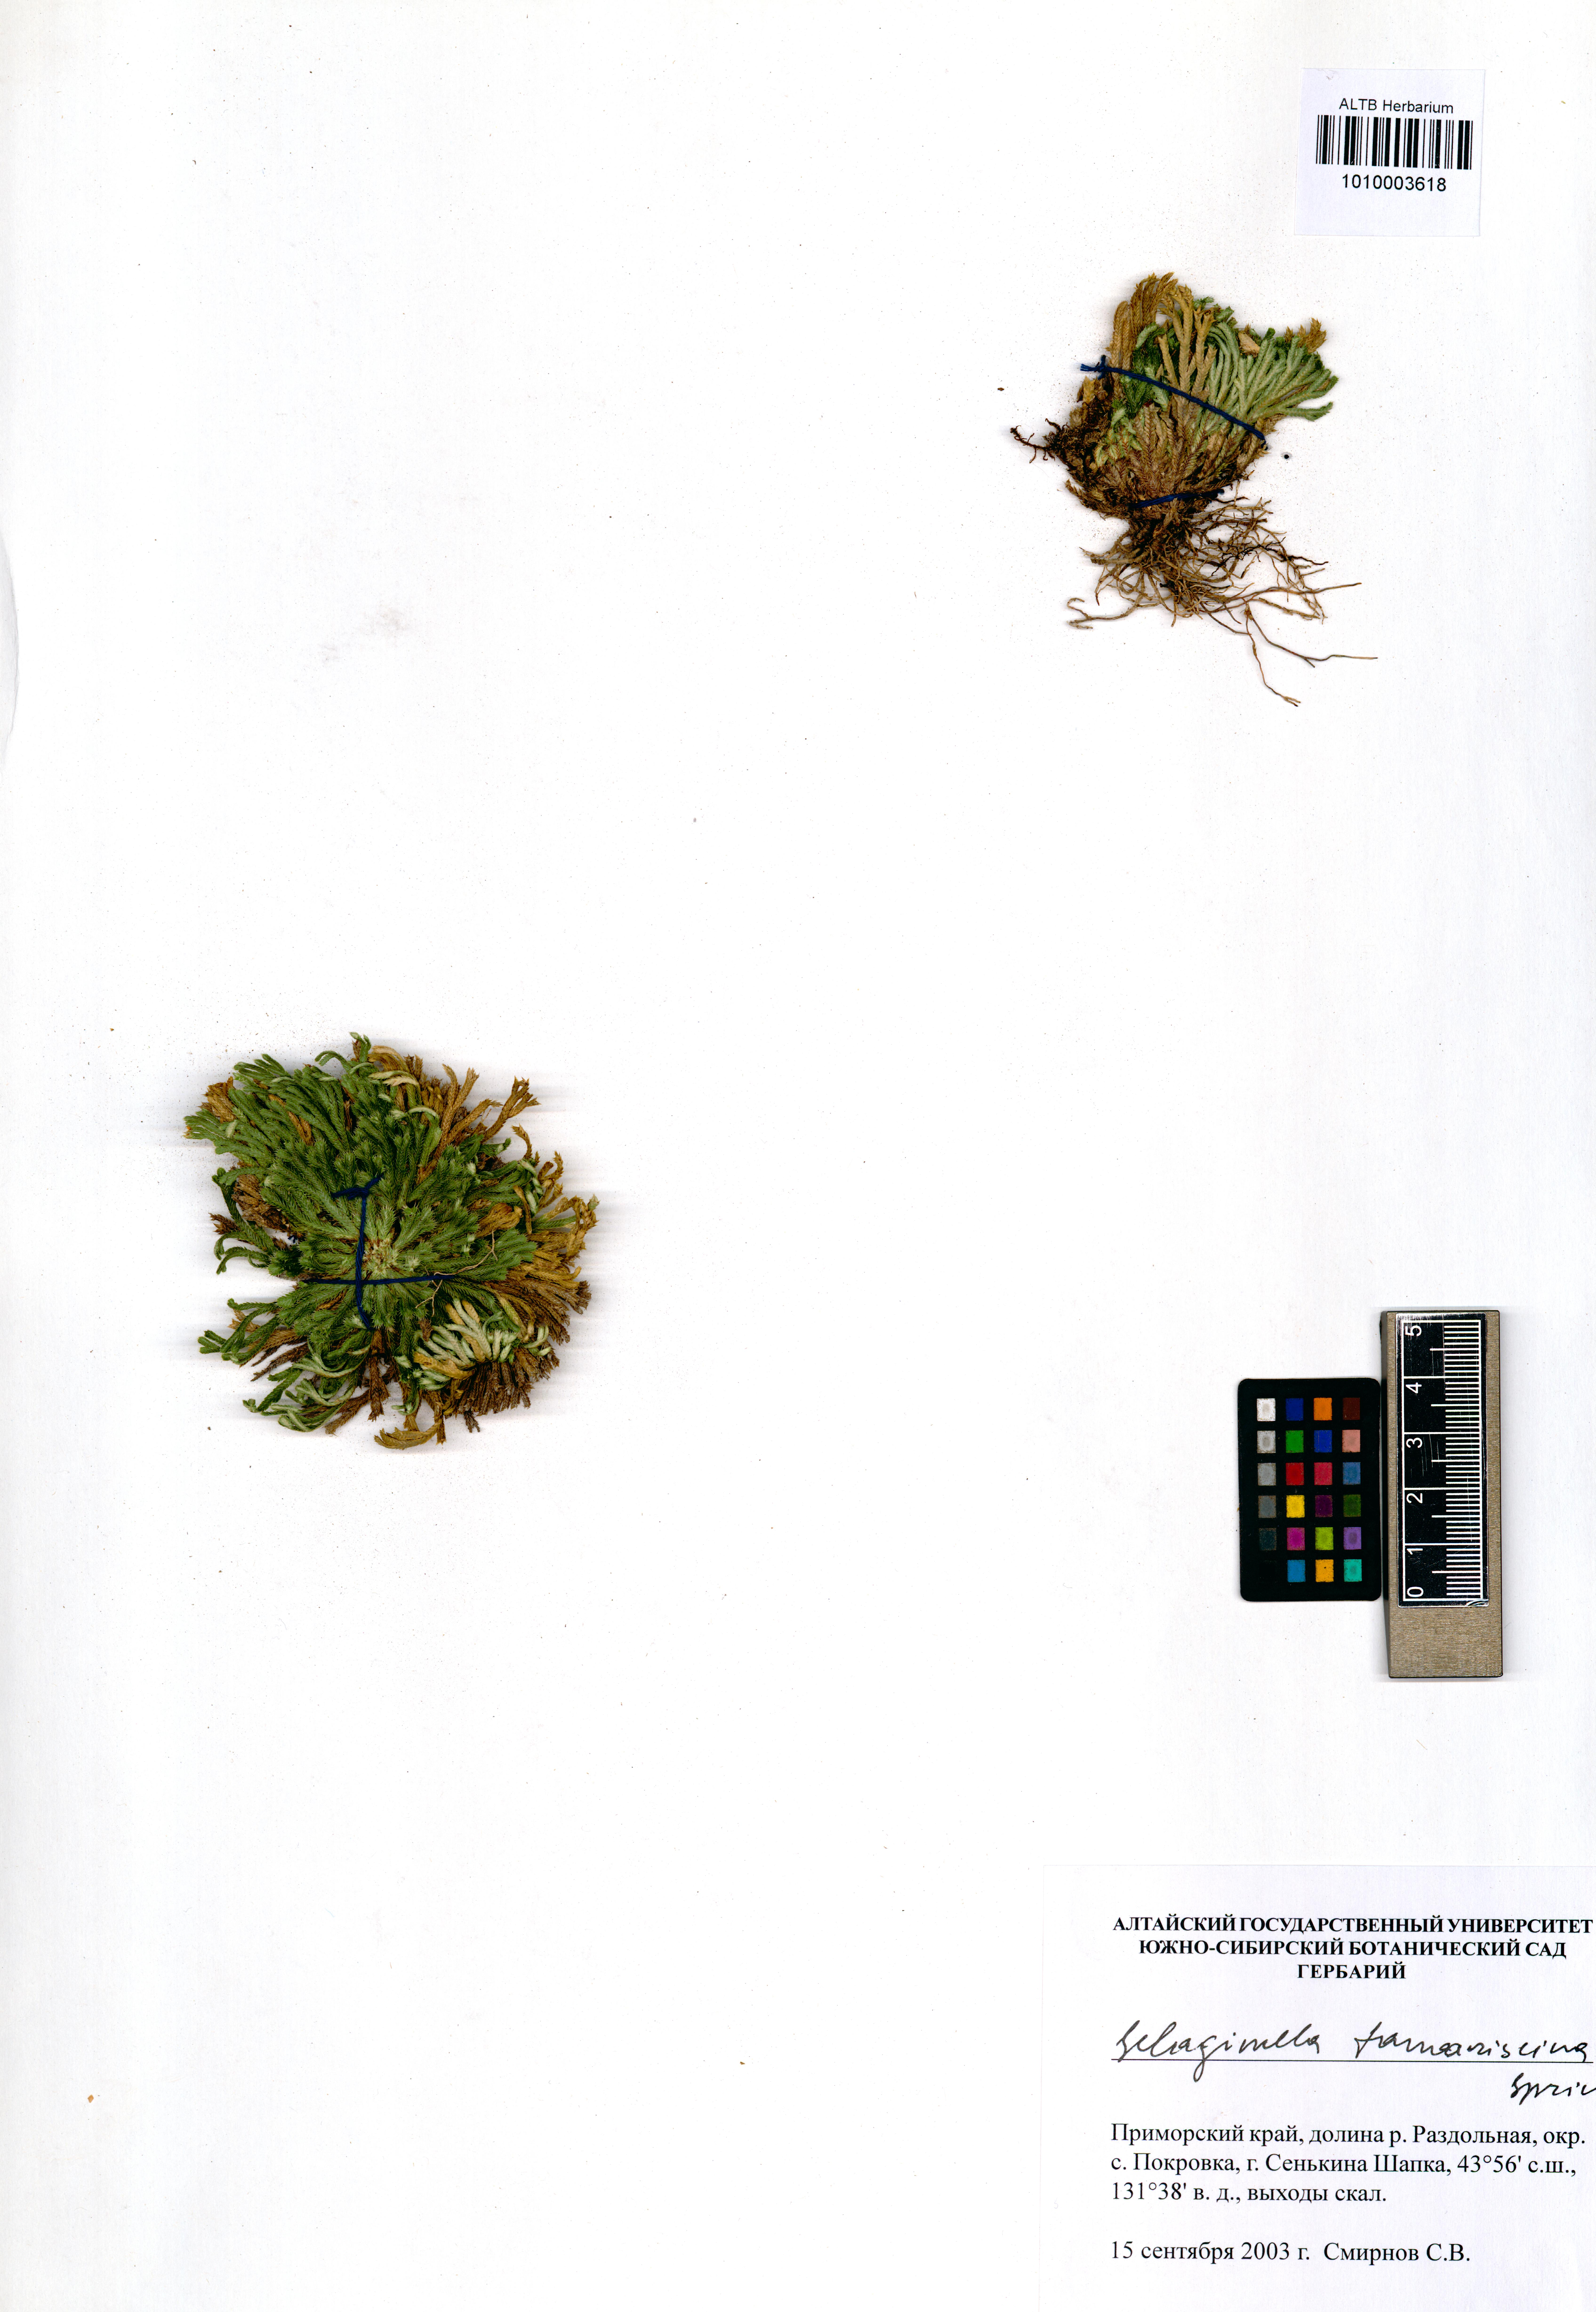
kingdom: Plantae
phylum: Tracheophyta
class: Lycopodiopsida
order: Selaginellales
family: Selaginellaceae
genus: Selaginella
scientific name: Selaginella tamariscina
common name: Little-club-moss
